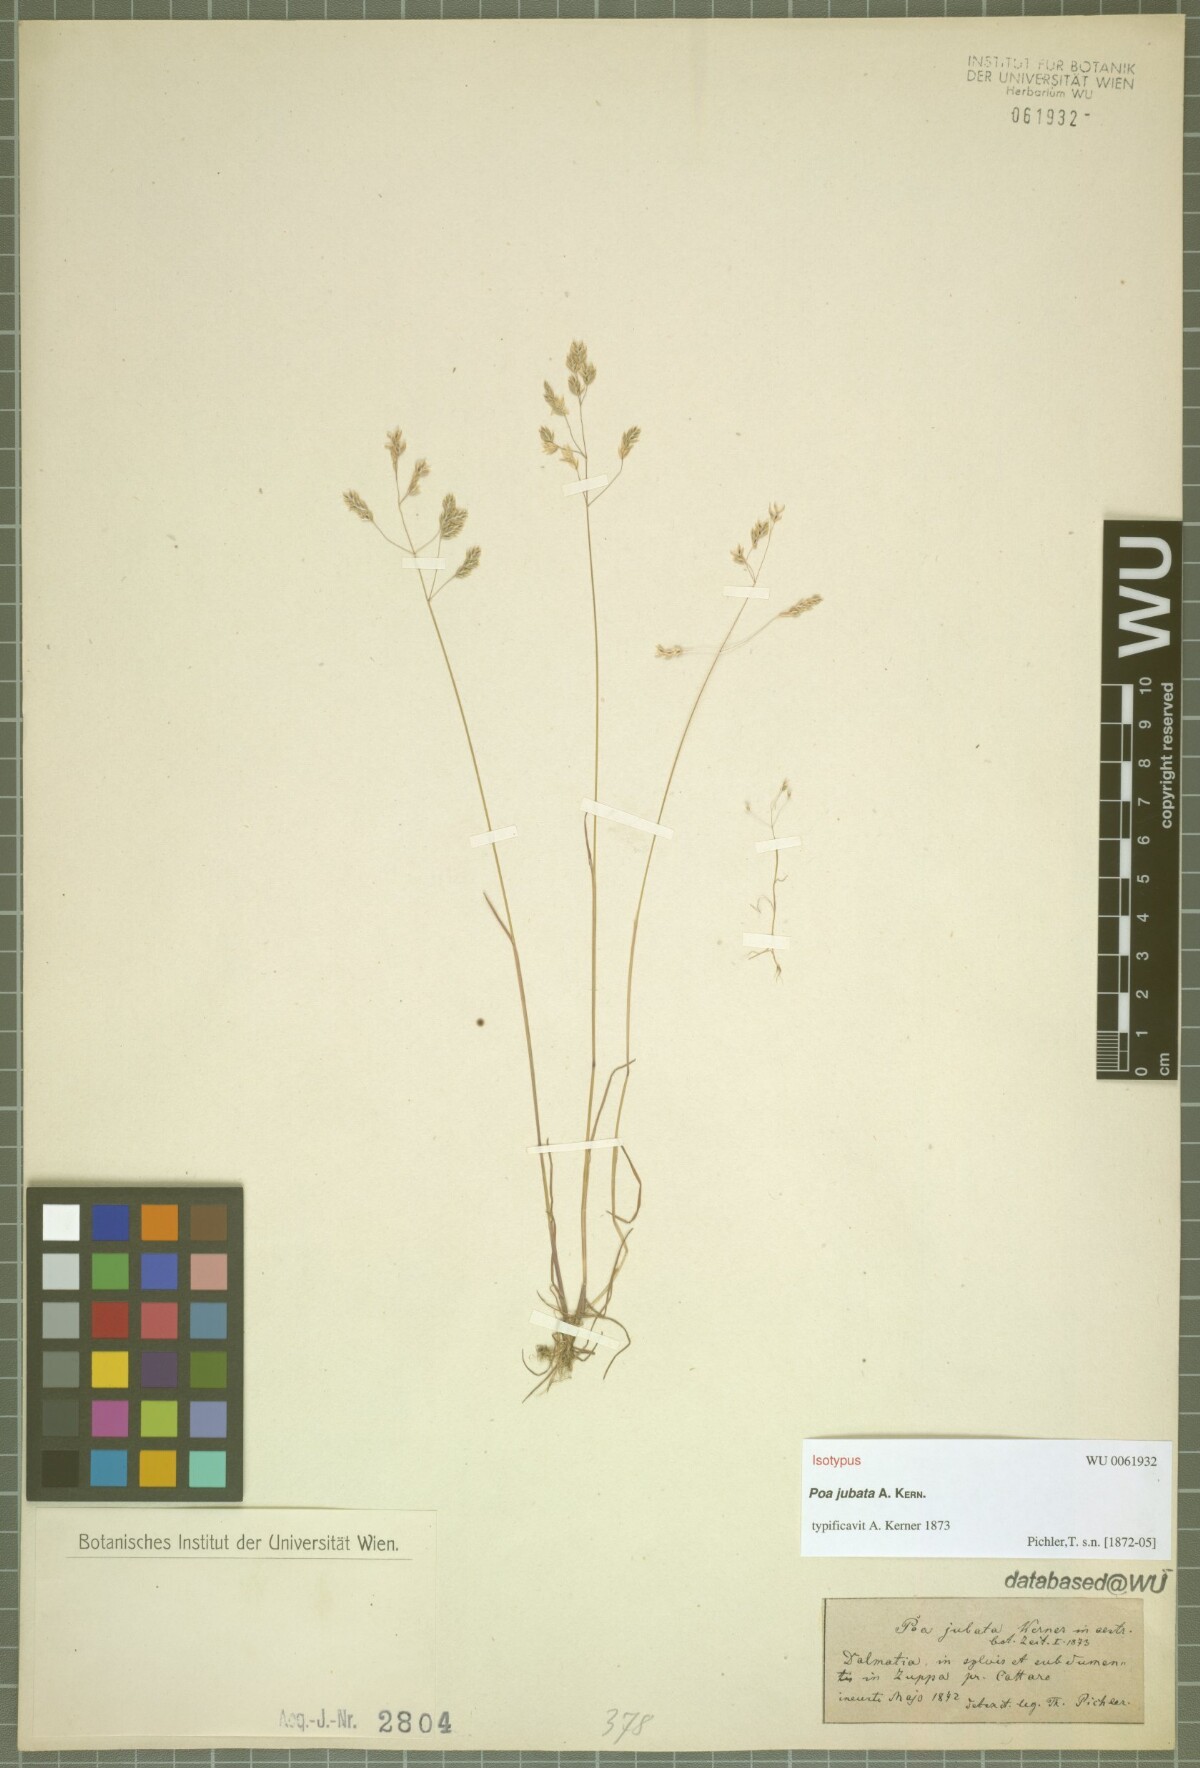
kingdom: Plantae
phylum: Tracheophyta
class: Liliopsida
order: Poales
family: Poaceae
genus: Poa
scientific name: Poa jubata
